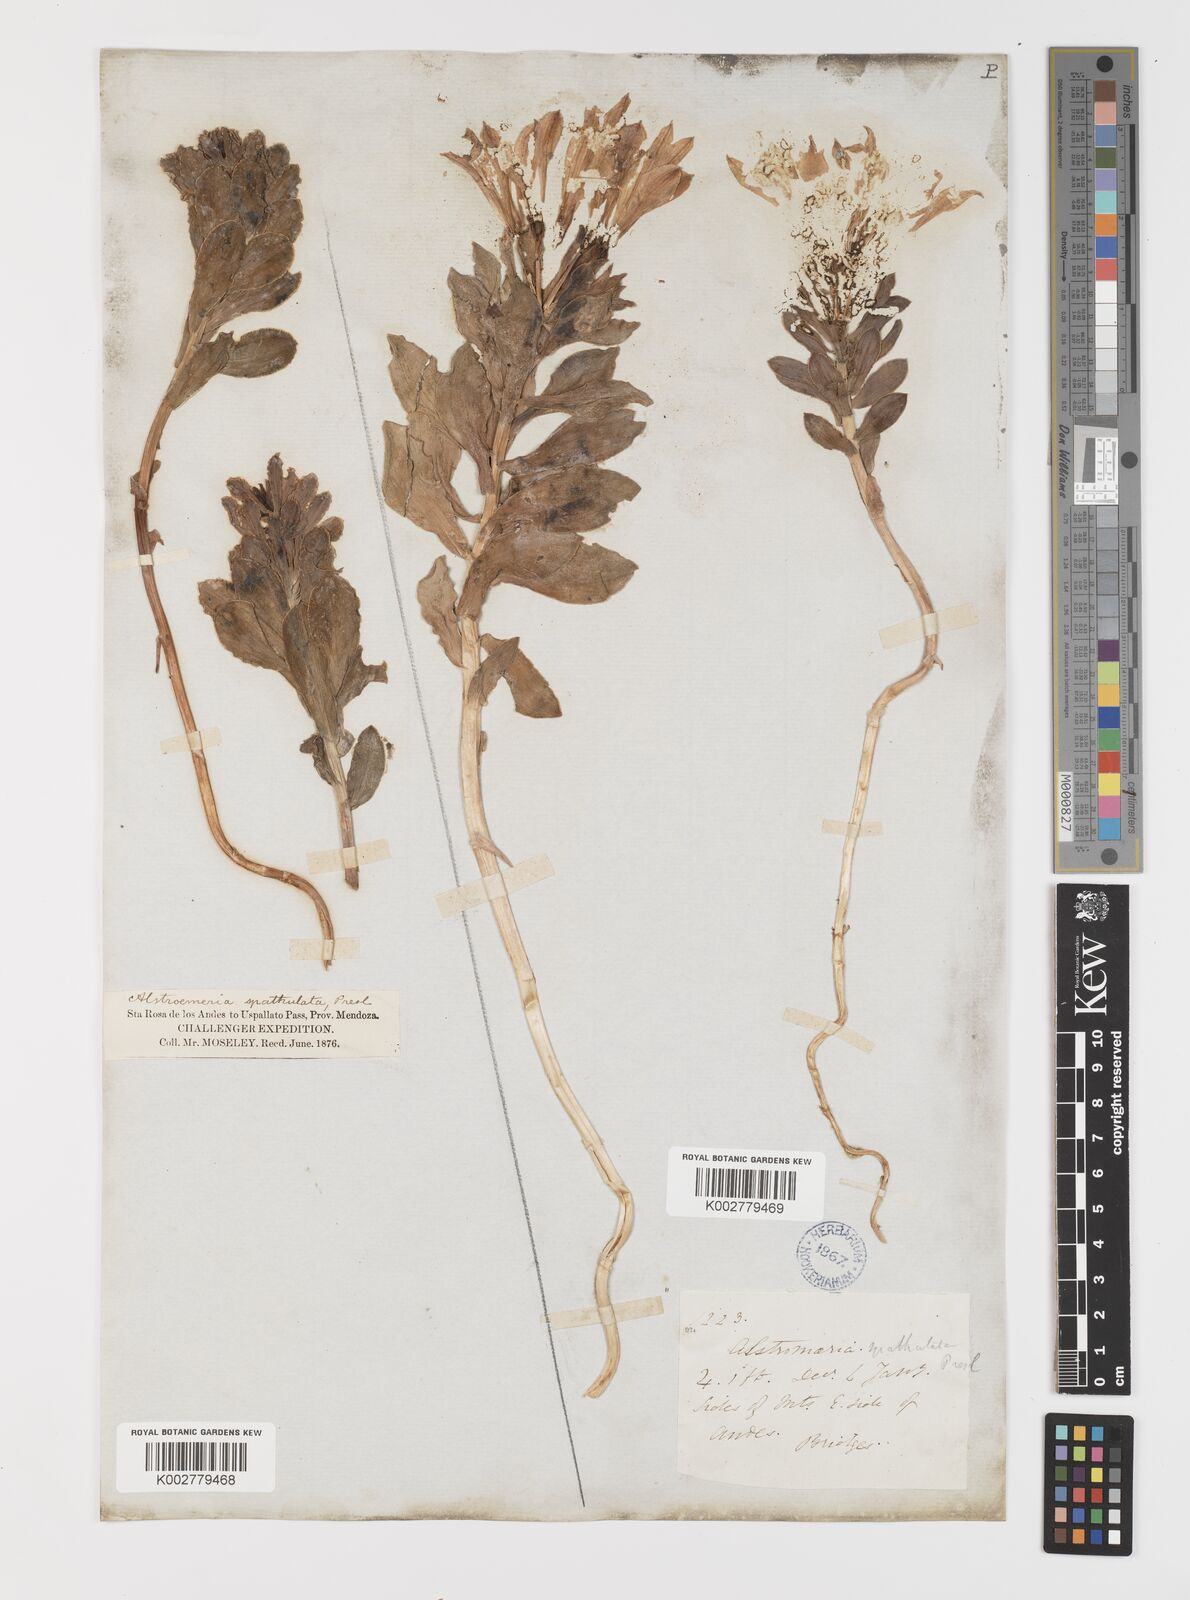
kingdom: Plantae
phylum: Tracheophyta
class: Liliopsida
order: Liliales
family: Alstroemeriaceae
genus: Alstroemeria
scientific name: Alstroemeria spathulata
